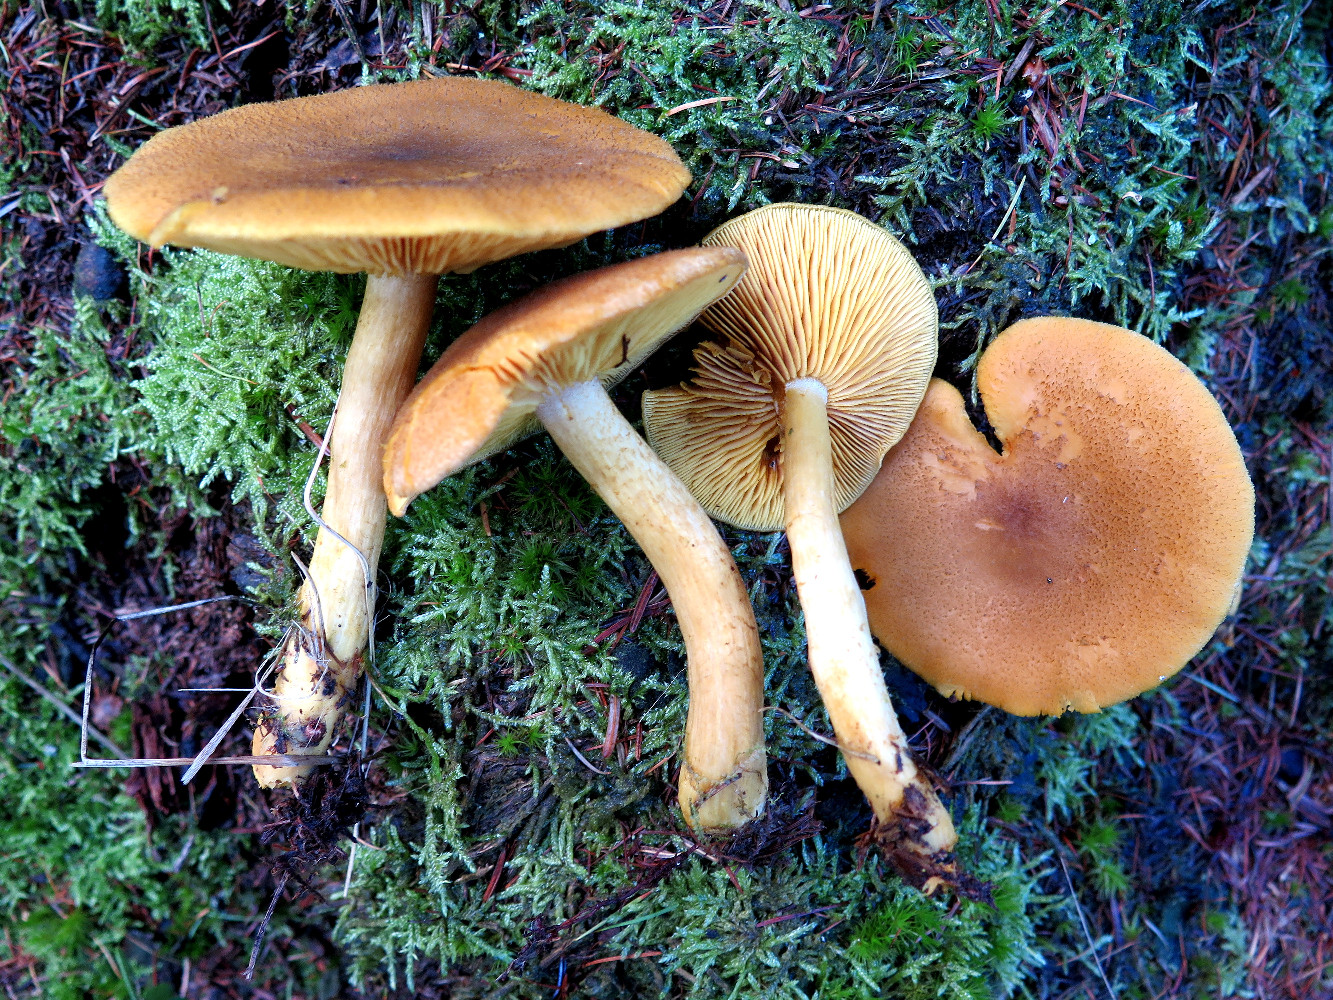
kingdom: Fungi
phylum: Basidiomycota
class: Agaricomycetes
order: Agaricales
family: Tricholomataceae
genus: Tricholomopsis
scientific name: Tricholomopsis rutilans
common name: purpur-væbnerhat
